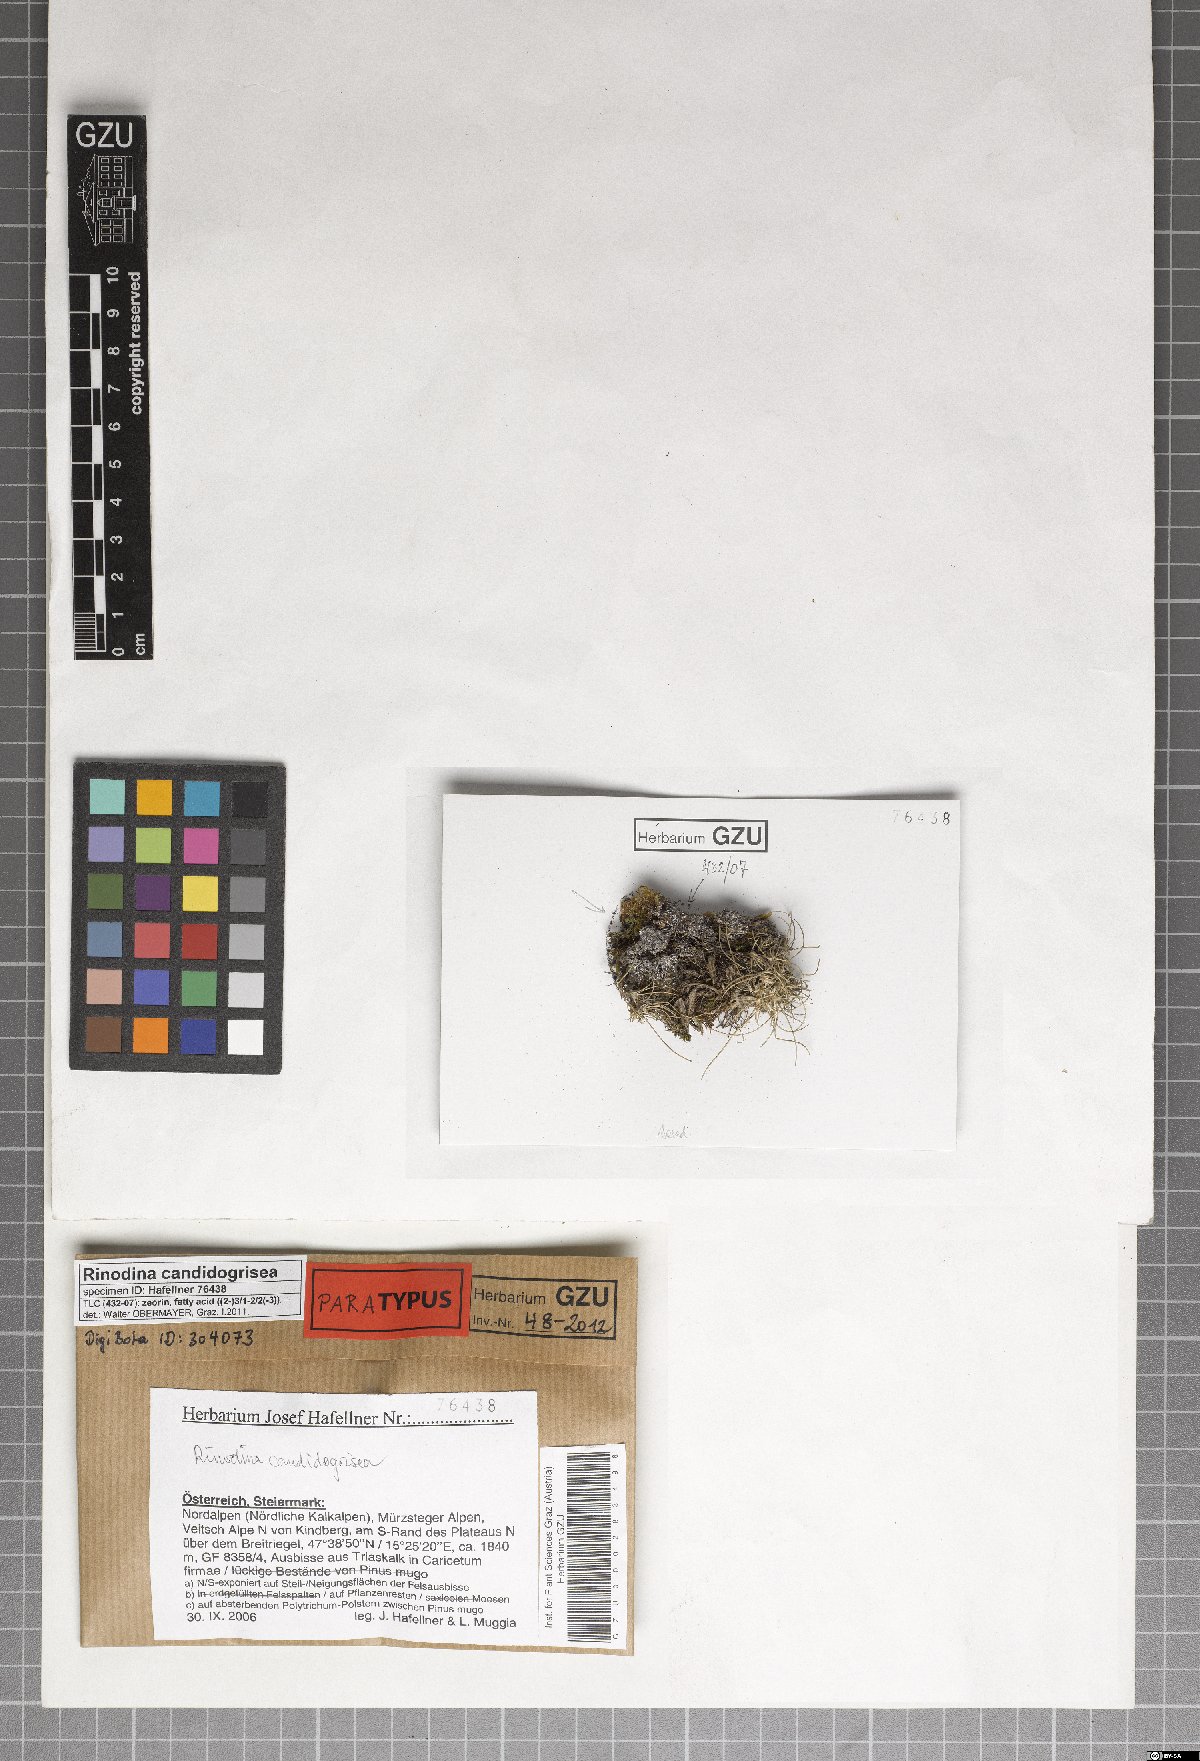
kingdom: Fungi
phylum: Ascomycota
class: Lecanoromycetes
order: Caliciales
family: Physciaceae
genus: Kudratovia
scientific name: Kudratovia candidogrisea
